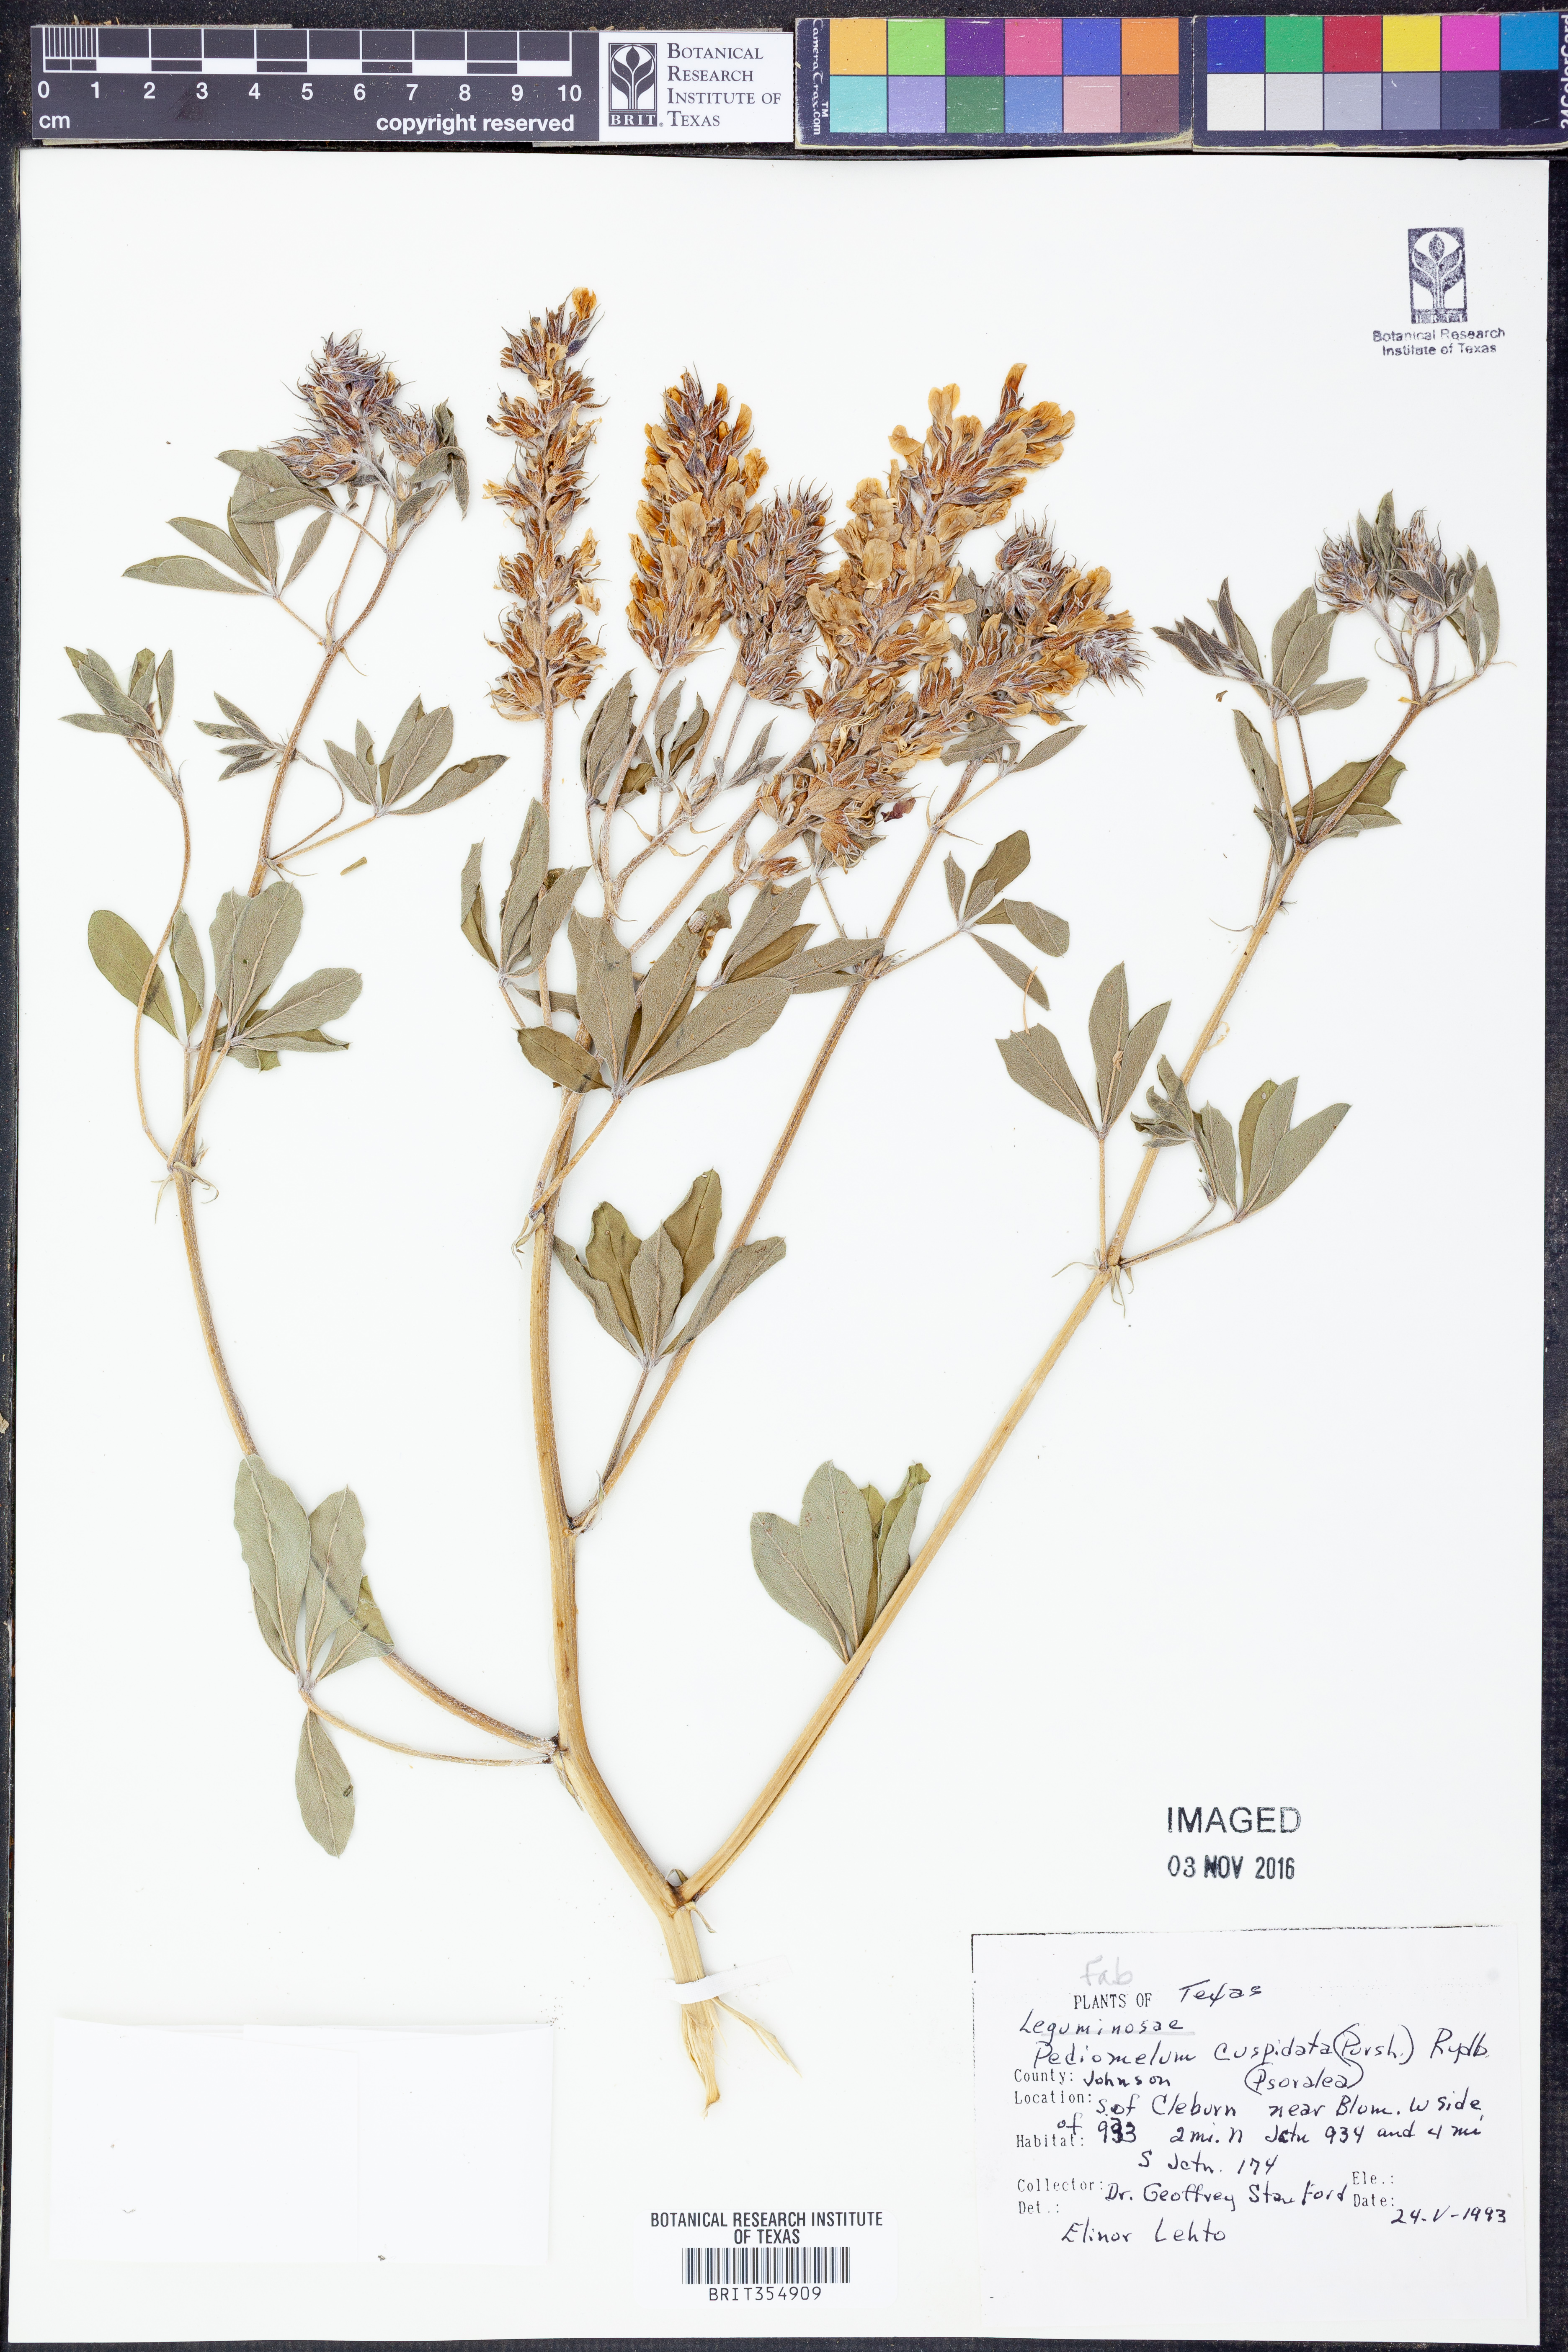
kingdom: Plantae
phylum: Tracheophyta
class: Magnoliopsida
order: Fabales
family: Fabaceae
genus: Pediomelum
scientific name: Pediomelum cuspidatum
